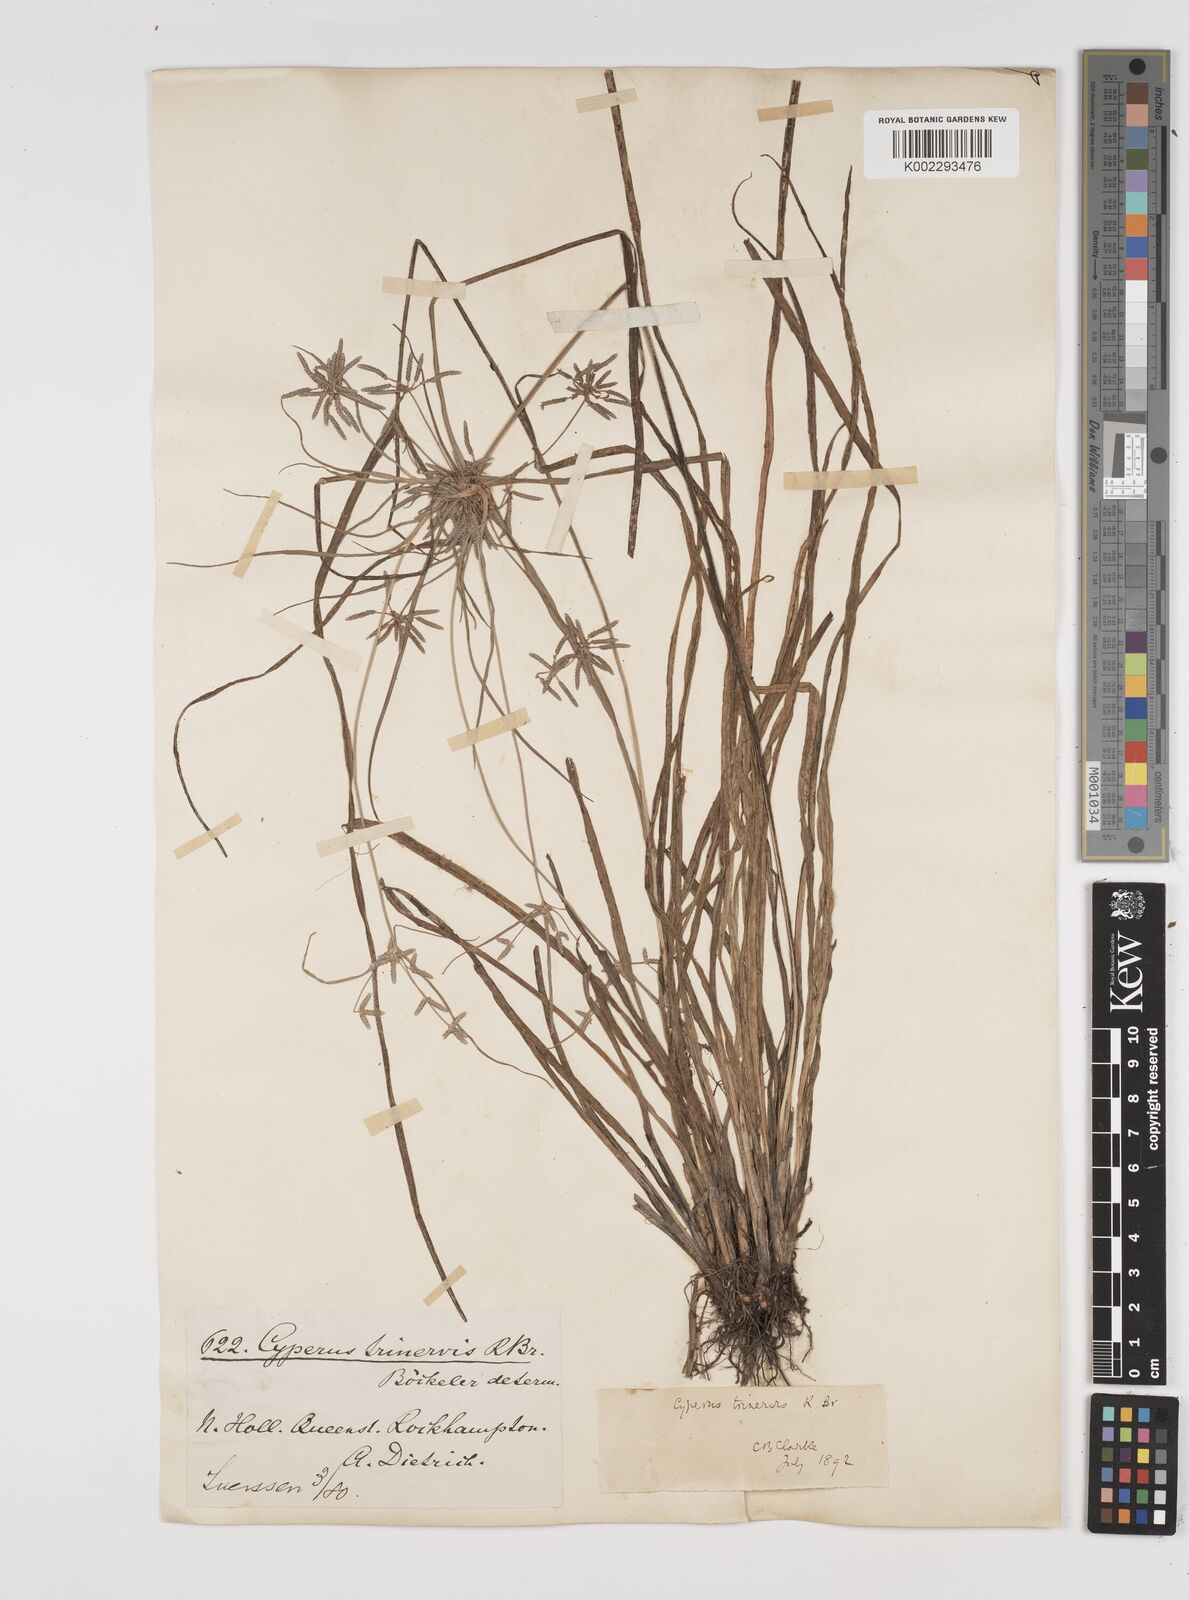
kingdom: Plantae
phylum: Tracheophyta
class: Liliopsida
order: Poales
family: Cyperaceae
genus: Cyperus
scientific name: Cyperus trinervis
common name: Australian flatsedge
